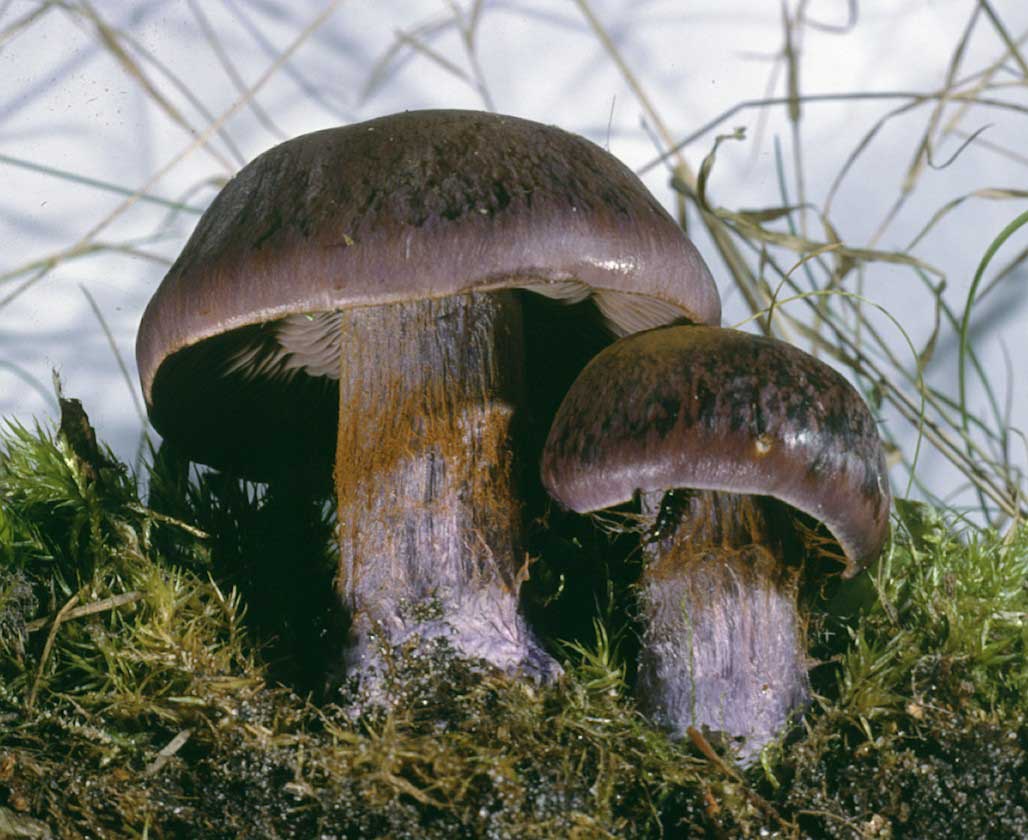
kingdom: Fungi
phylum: Basidiomycota
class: Agaricomycetes
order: Agaricales
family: Cortinariaceae
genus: Thaxterogaster
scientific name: Thaxterogaster purpurascens
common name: purpurbrun slørhat
